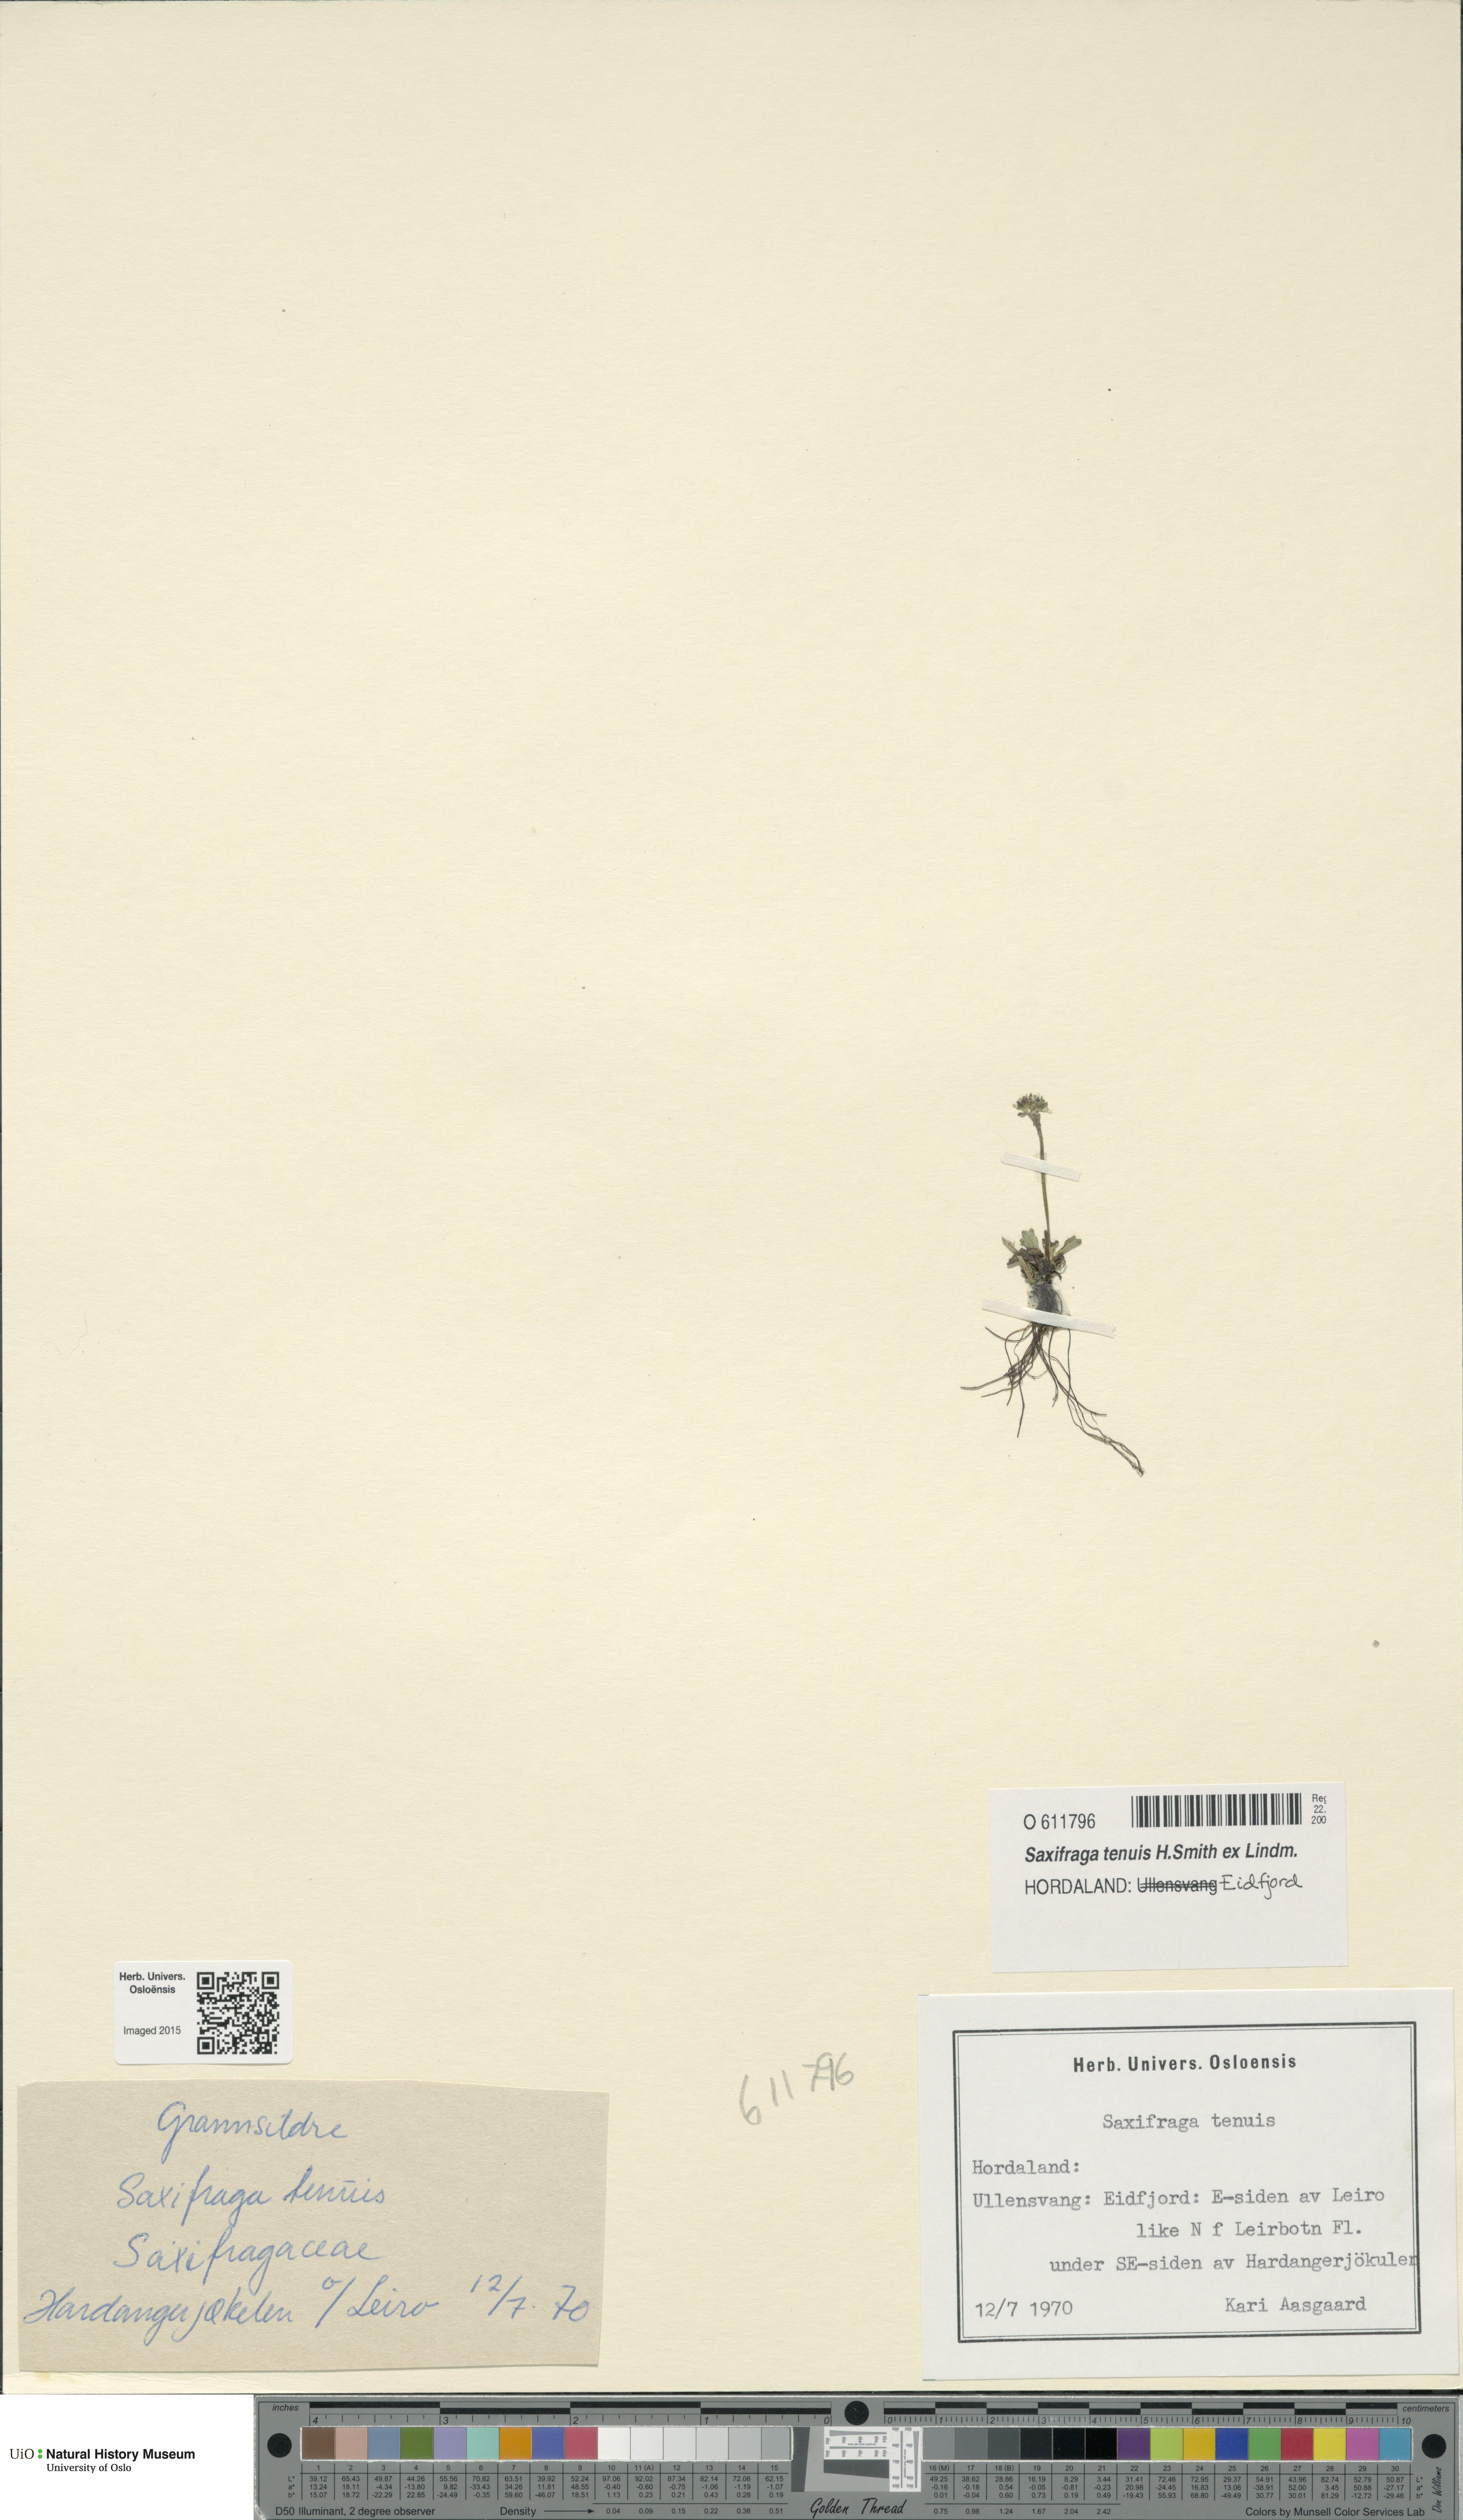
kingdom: Plantae
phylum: Tracheophyta
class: Magnoliopsida
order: Saxifragales
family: Saxifragaceae
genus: Micranthes
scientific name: Micranthes tenuis
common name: Ottertail pass saxifrage
